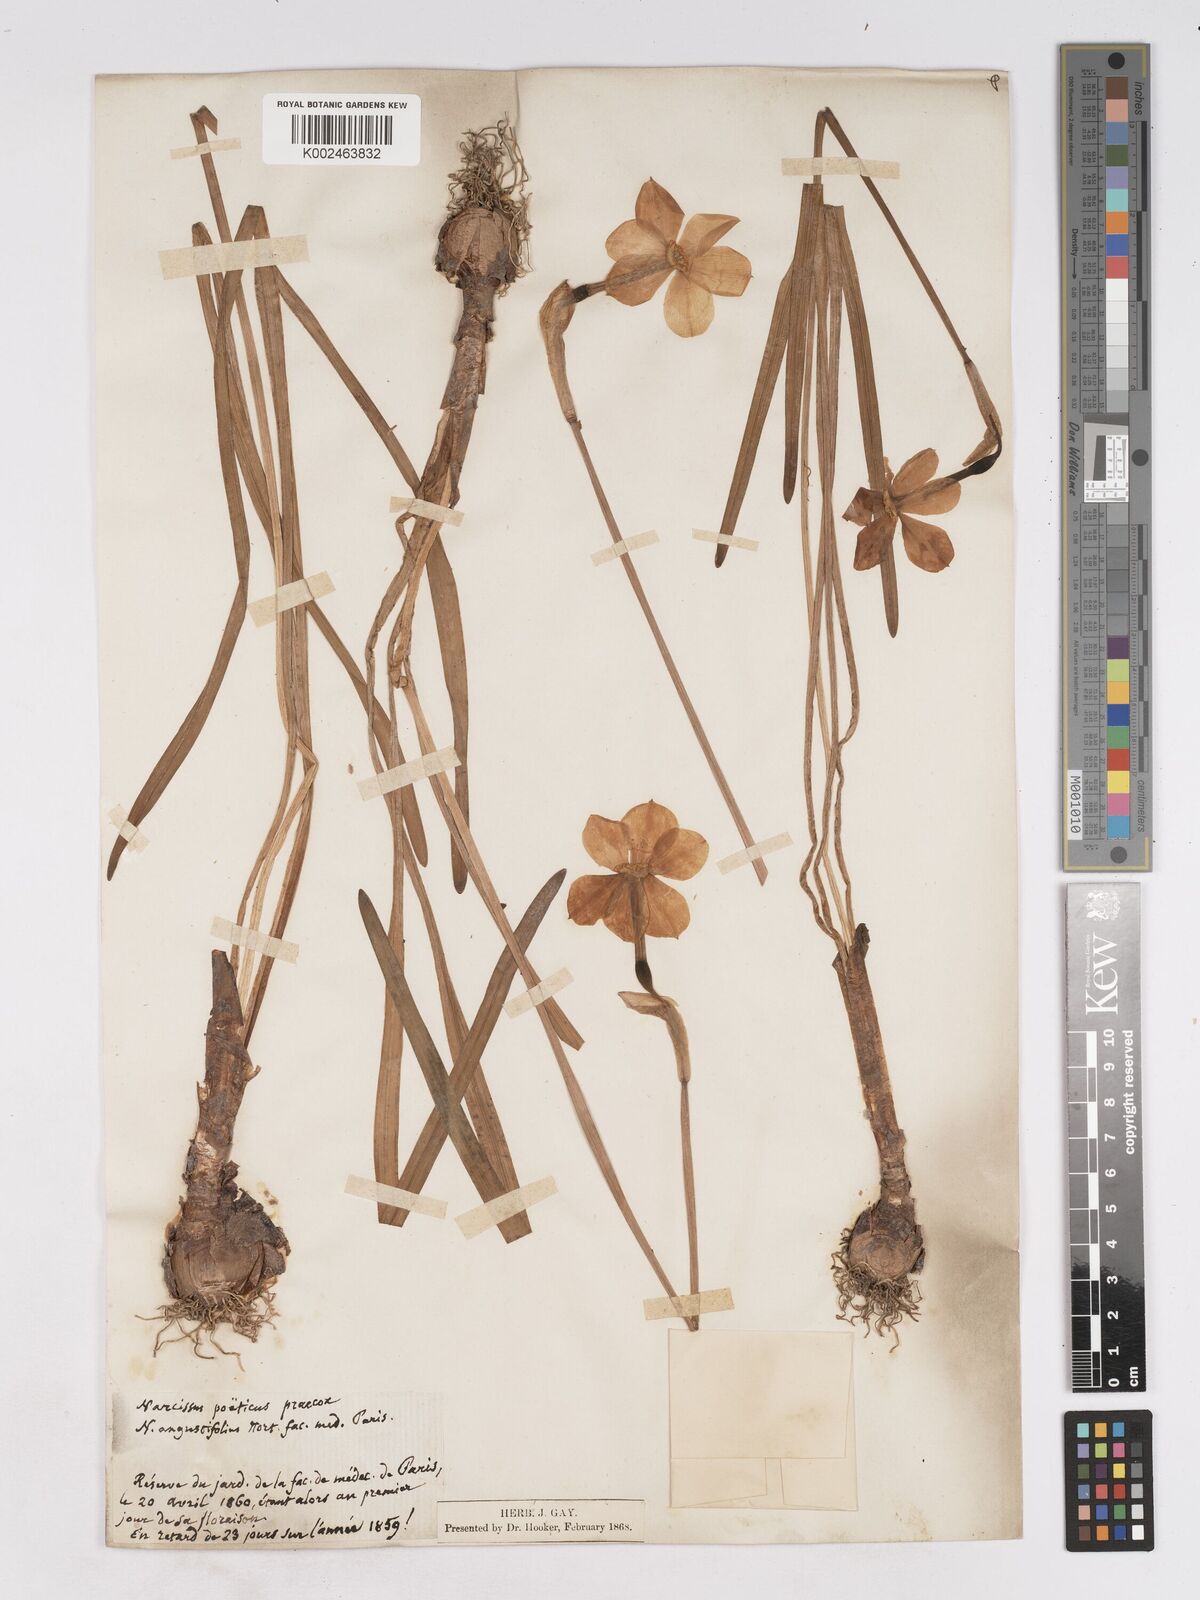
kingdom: Plantae
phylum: Tracheophyta
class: Liliopsida
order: Asparagales
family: Amaryllidaceae
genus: Narcissus
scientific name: Narcissus
